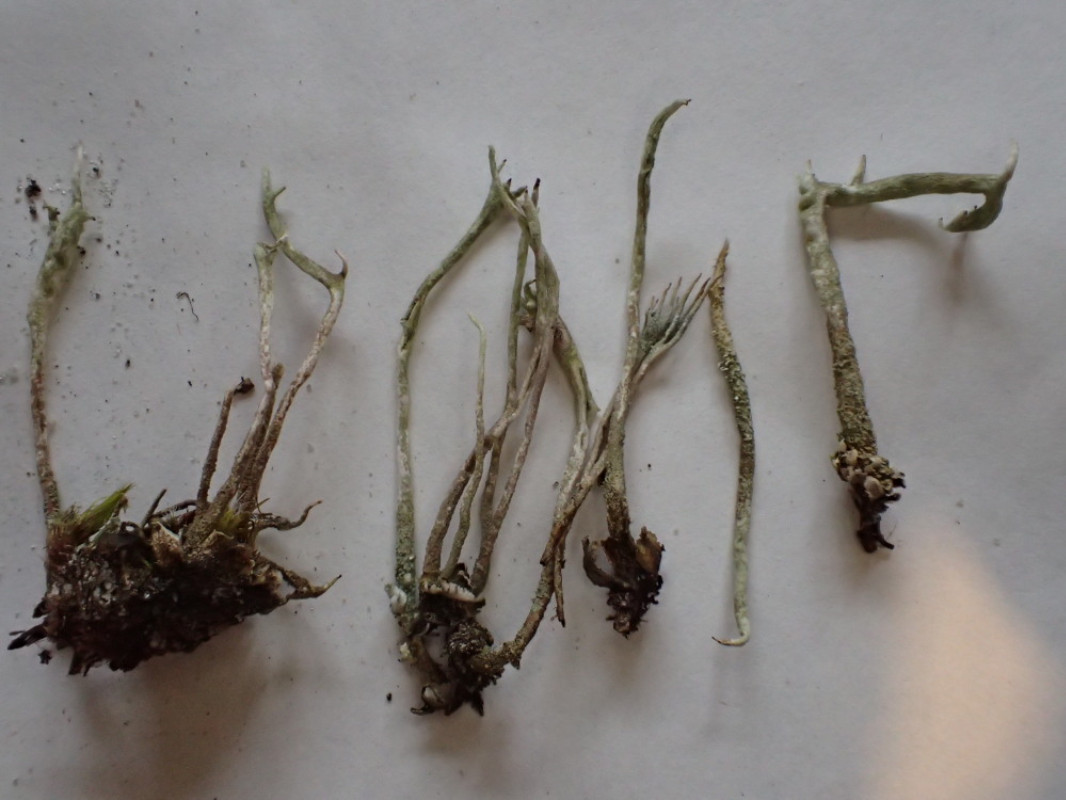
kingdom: Fungi
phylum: Ascomycota
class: Lecanoromycetes
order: Lecanorales
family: Cladoniaceae
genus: Cladonia
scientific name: Cladonia subulata
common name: spids bægerlav
